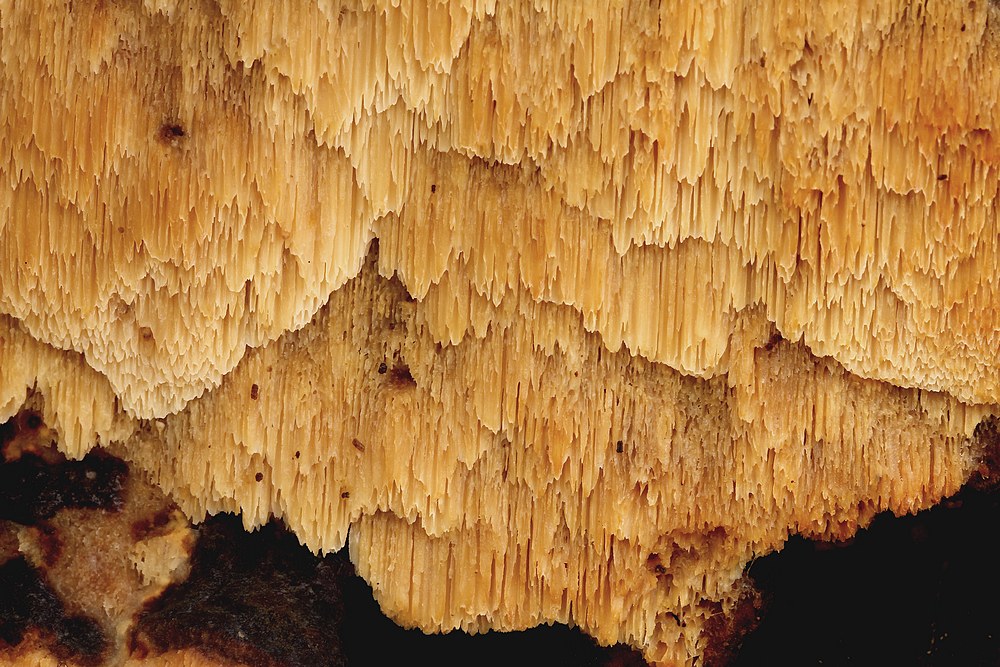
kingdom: Fungi
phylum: Basidiomycota
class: Agaricomycetes
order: Polyporales
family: Ischnodermataceae
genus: Ischnoderma
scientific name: Ischnoderma resinosum
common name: løv-tjæreporesvamp
